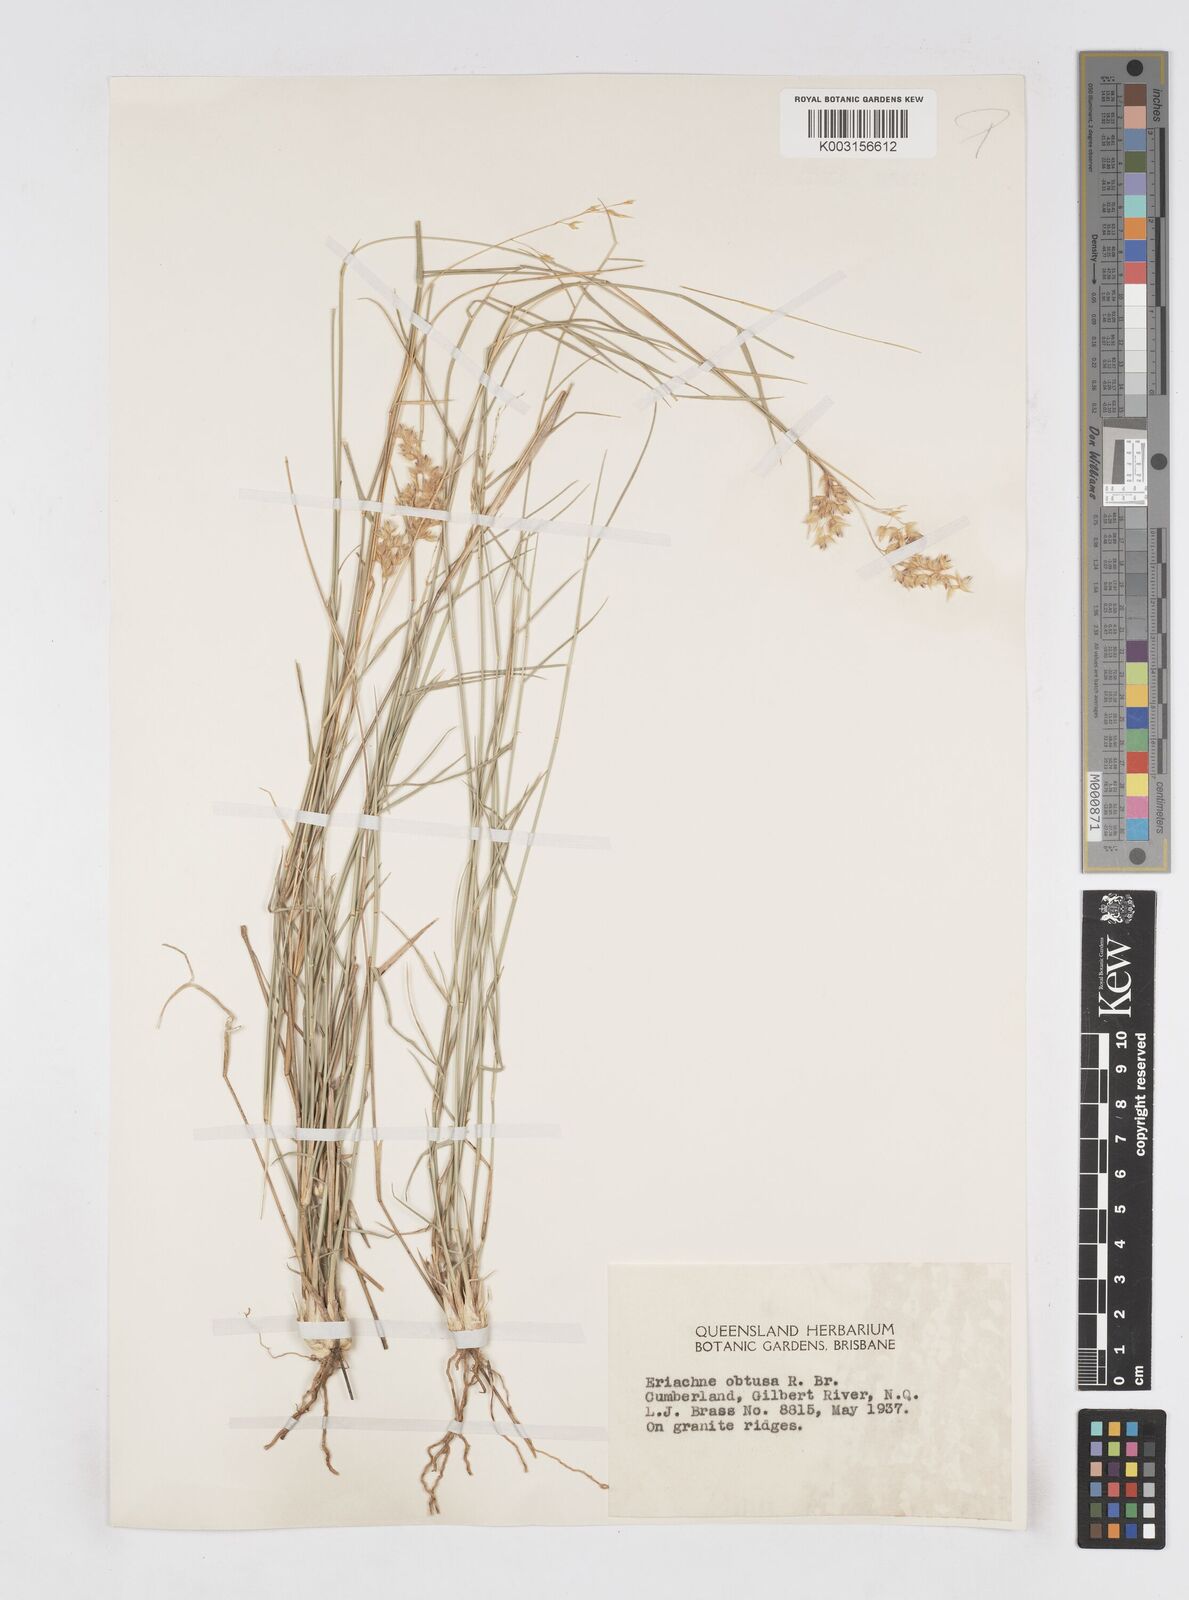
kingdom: Plantae
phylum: Tracheophyta
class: Liliopsida
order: Poales
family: Poaceae
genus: Eriachne
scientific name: Eriachne obtusa
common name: Northern wanderrie grass
